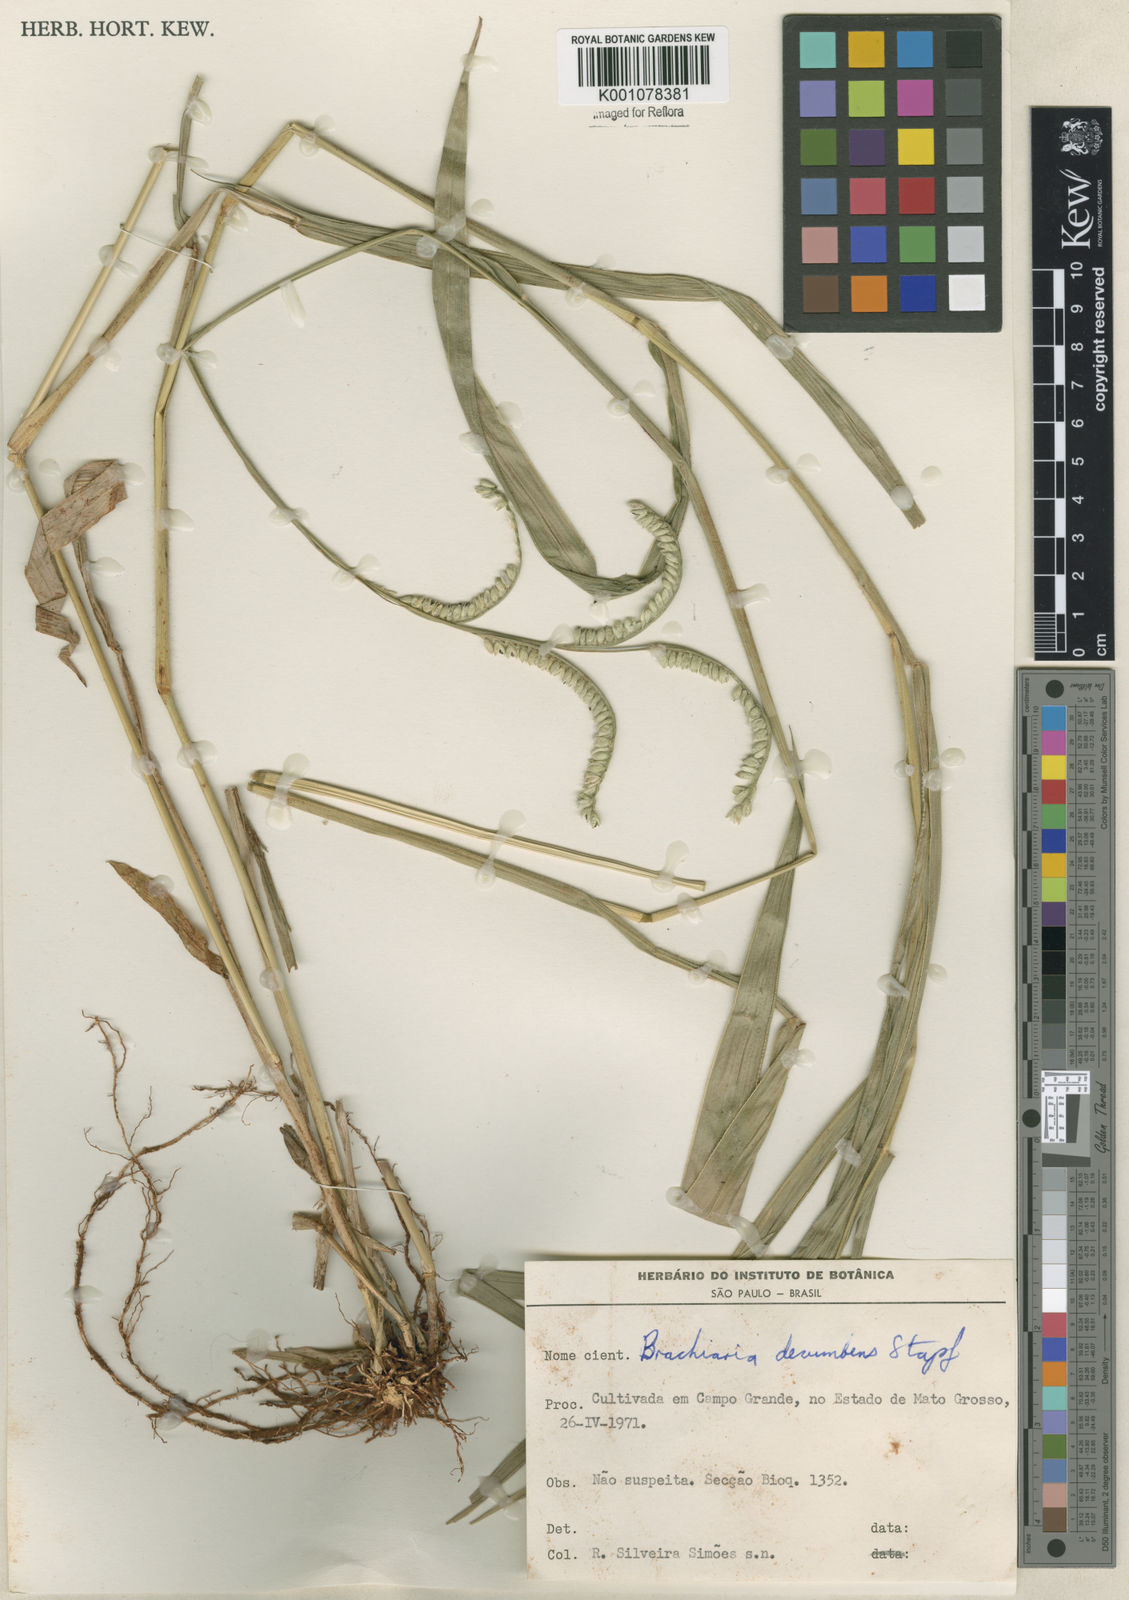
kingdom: Plantae
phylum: Tracheophyta
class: Liliopsida
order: Poales
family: Poaceae
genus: Urochloa
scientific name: Urochloa brizantha
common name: Palisade signalgrass
